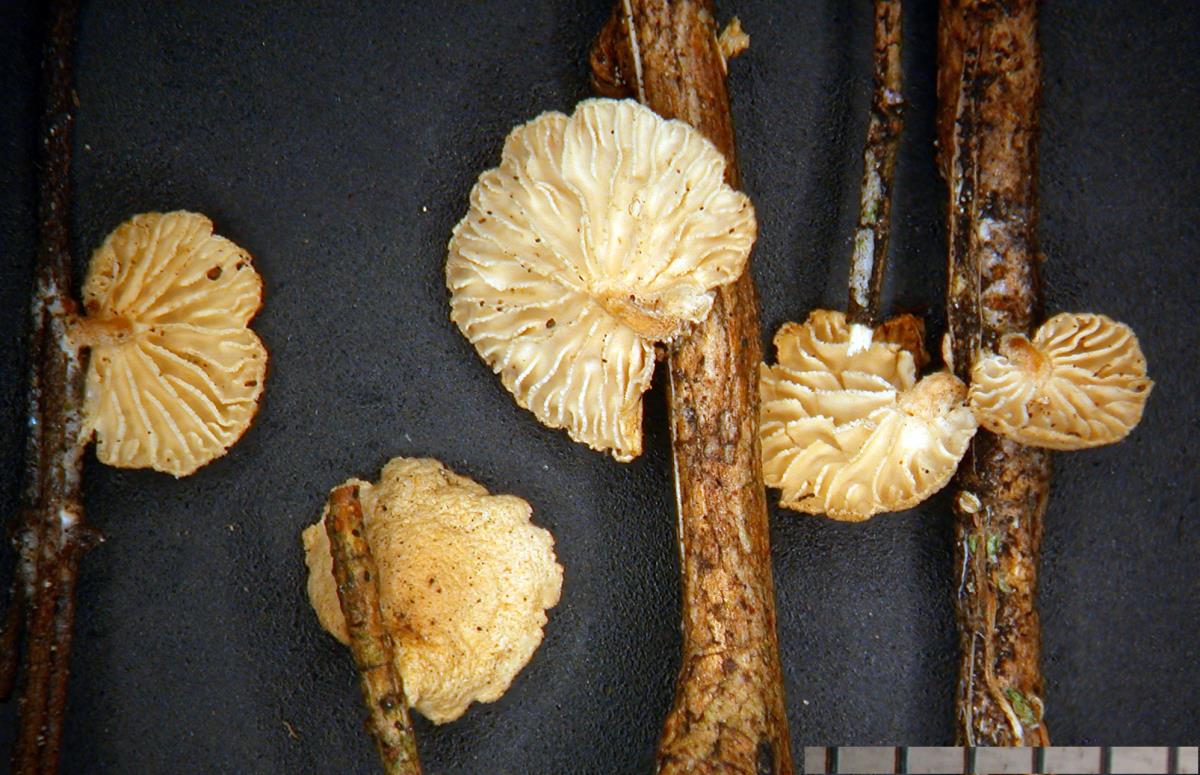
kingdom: Fungi
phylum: Basidiomycota
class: Agaricomycetes
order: Agaricales
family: Omphalotaceae
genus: Gymnopus
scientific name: Gymnopus imbricatus
